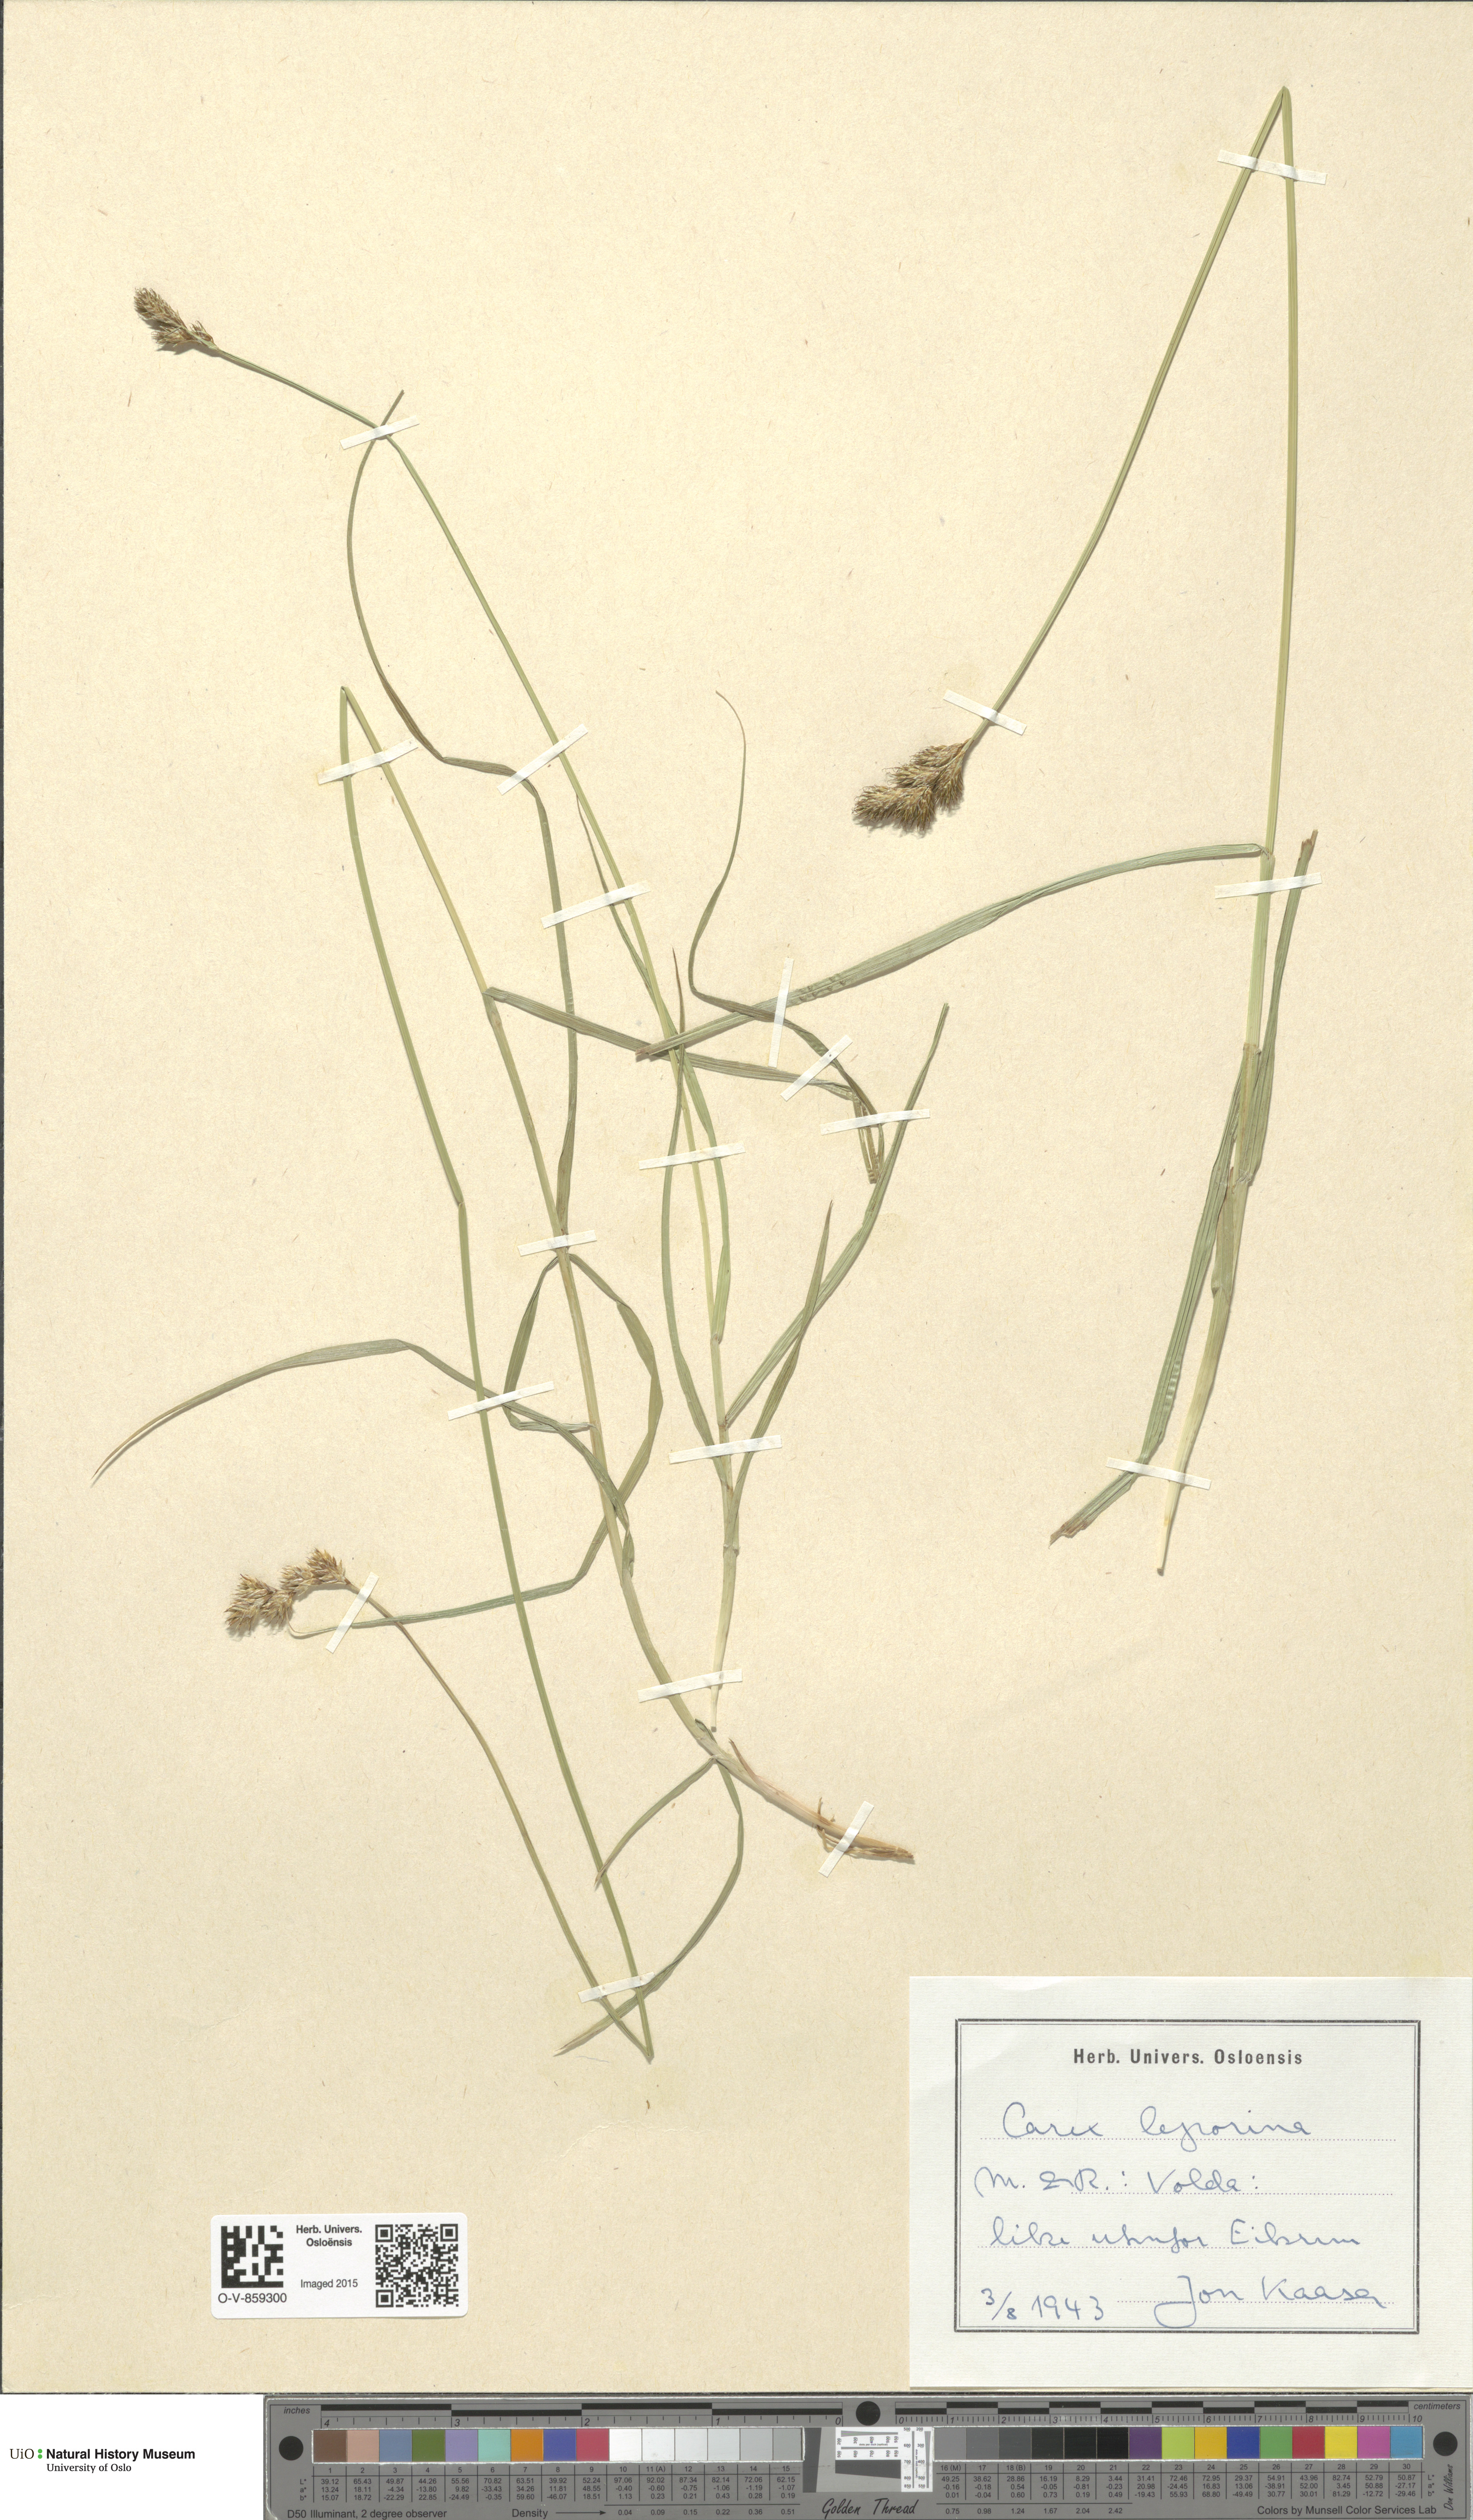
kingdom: Plantae
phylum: Tracheophyta
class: Liliopsida
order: Poales
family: Cyperaceae
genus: Carex
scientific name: Carex leporina
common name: Oval sedge
